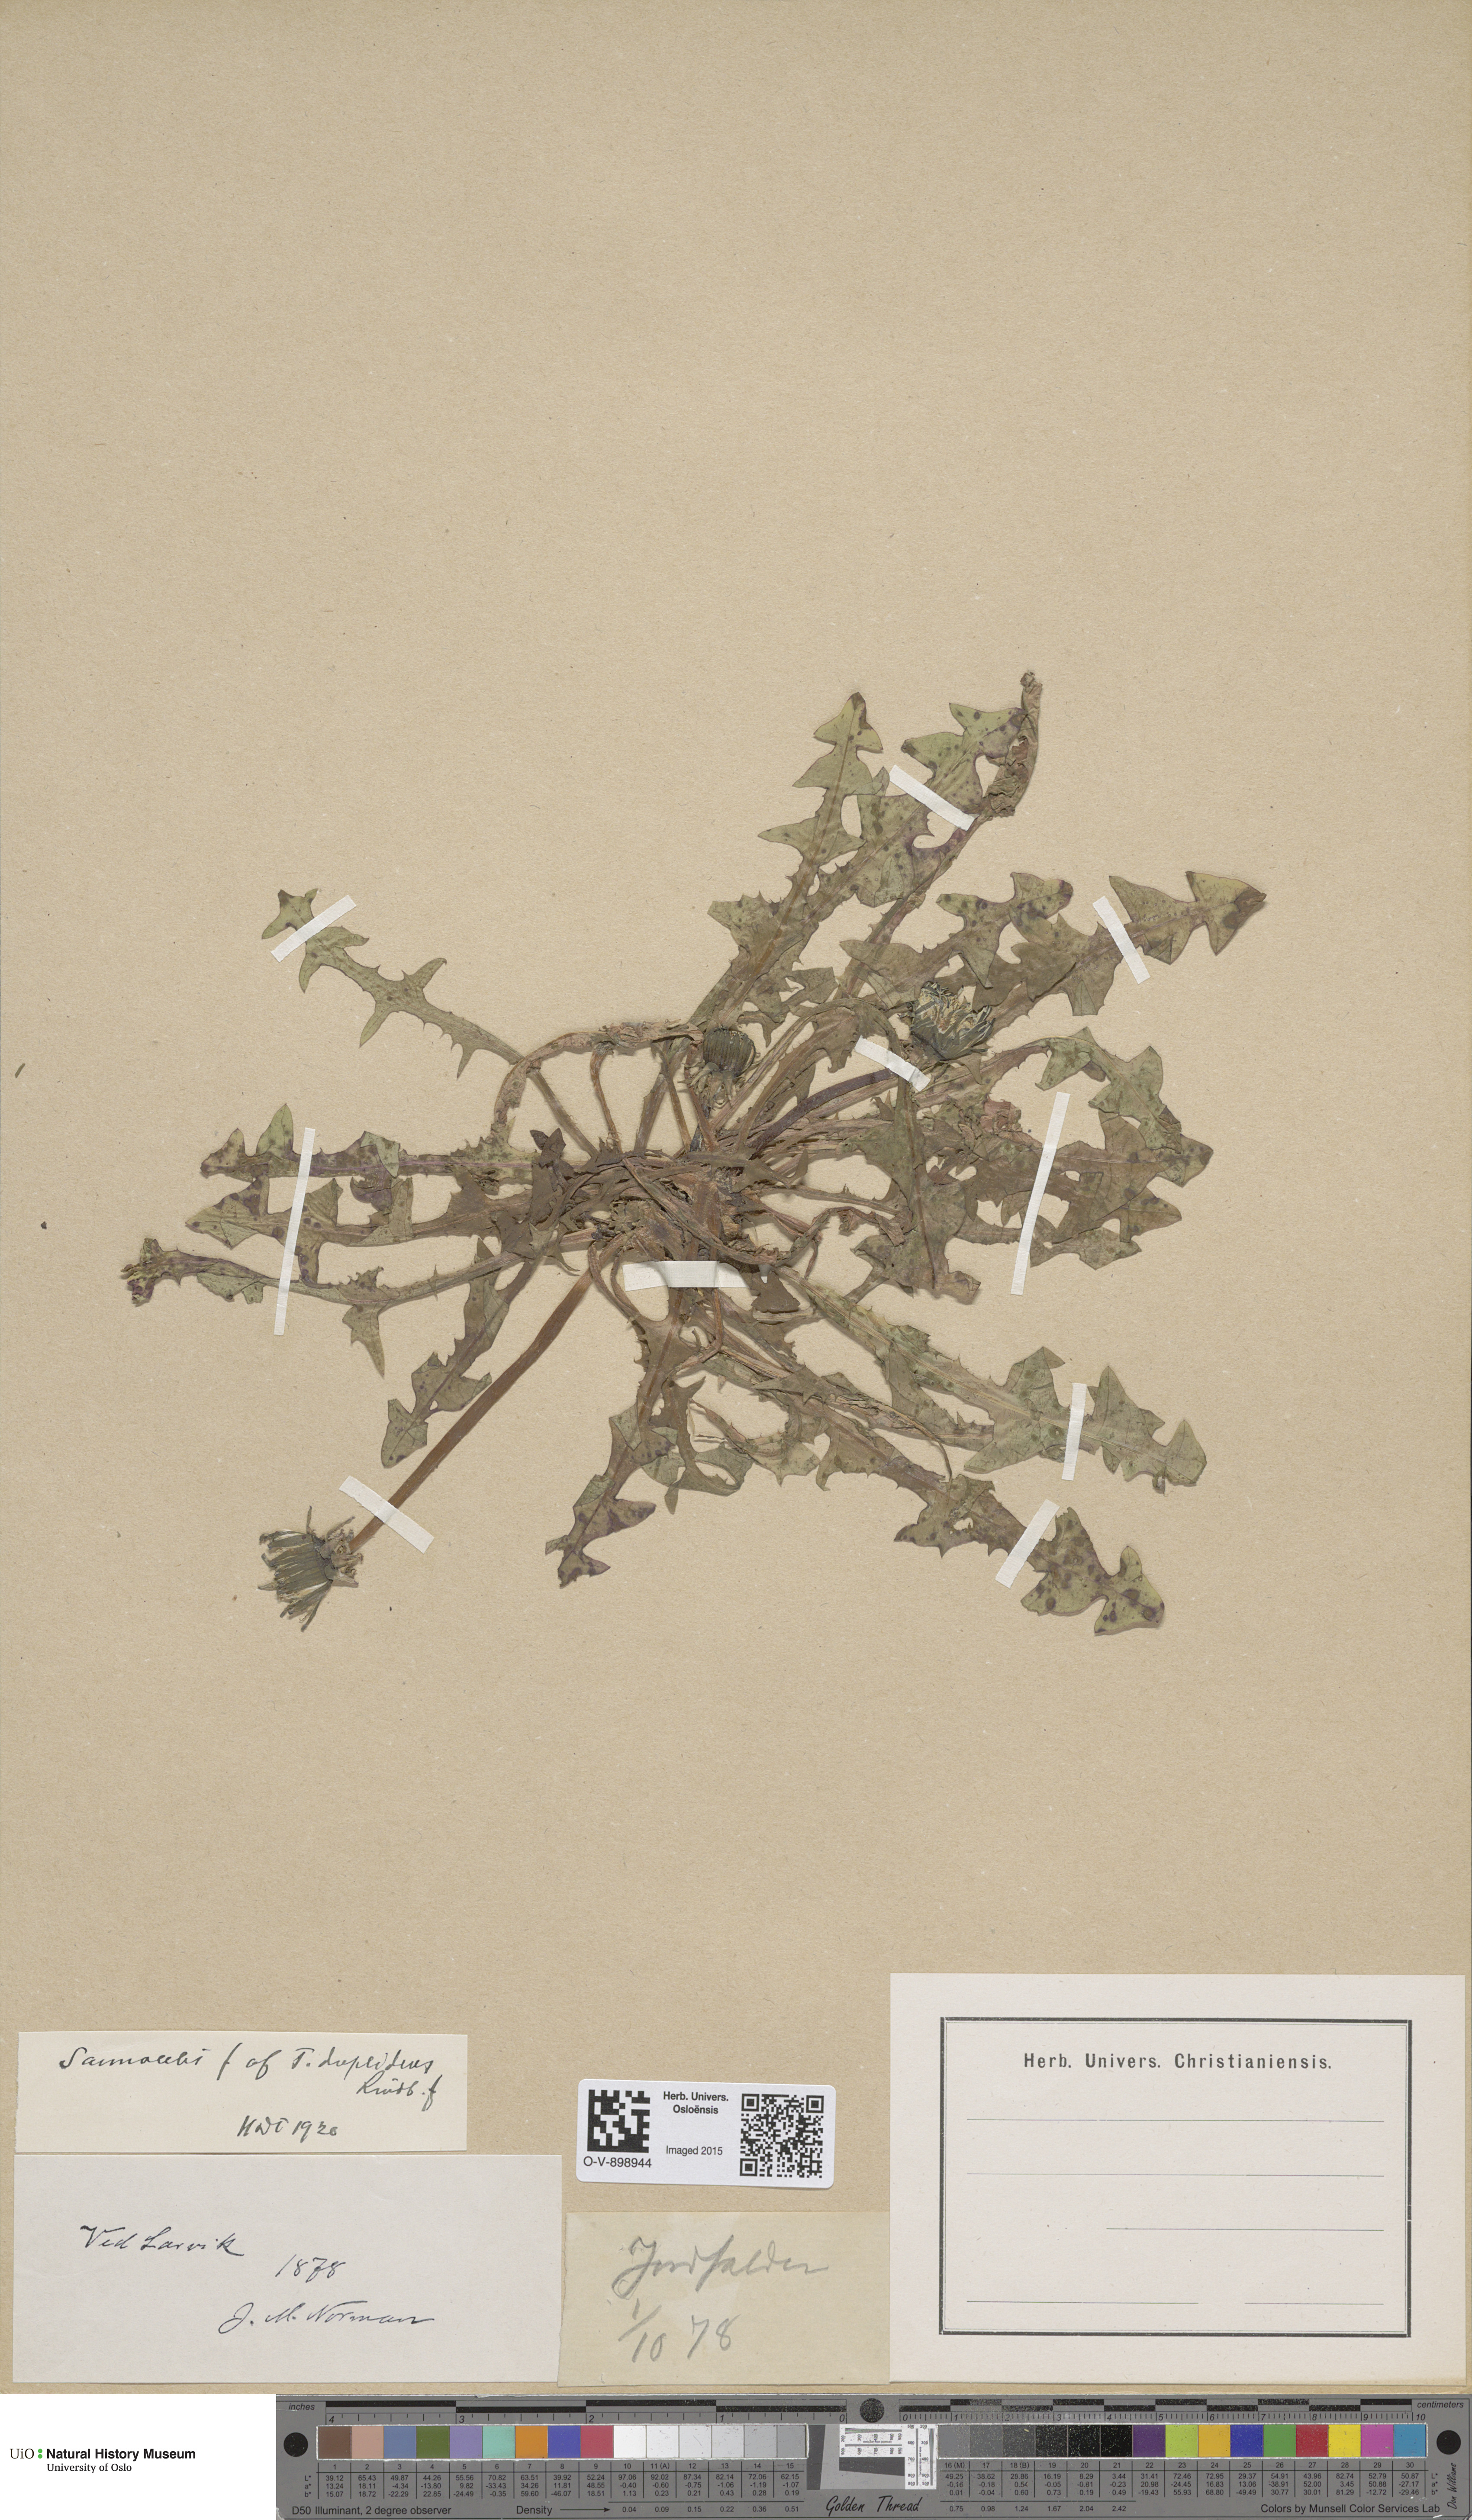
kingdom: Plantae
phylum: Tracheophyta
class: Magnoliopsida
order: Asterales
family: Asteraceae
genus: Taraxacum
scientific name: Taraxacum ostenfeldii
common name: Ostenfeld's dandelion
